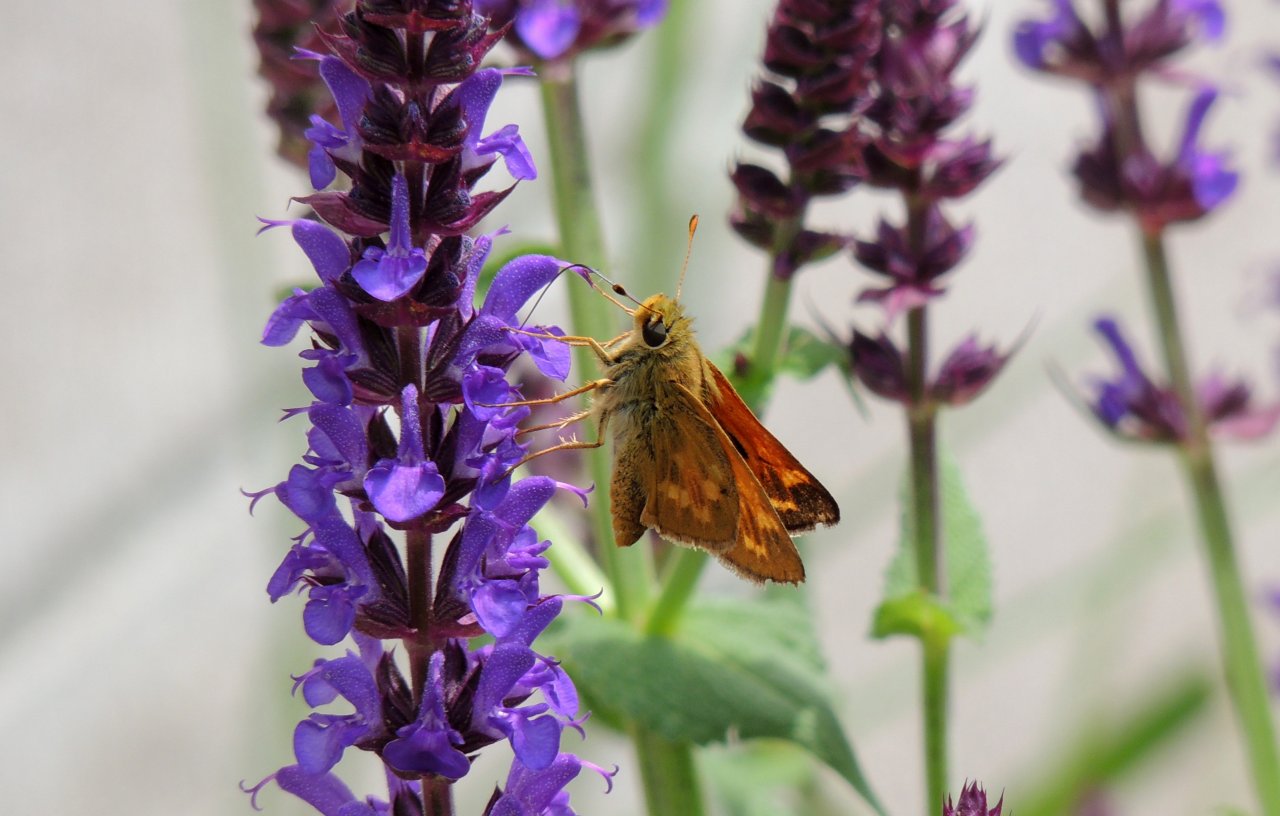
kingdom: Animalia
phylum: Arthropoda
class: Insecta
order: Lepidoptera
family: Hesperiidae
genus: Hesperia
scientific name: Hesperia sassacus
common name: Sassacus Skipper
